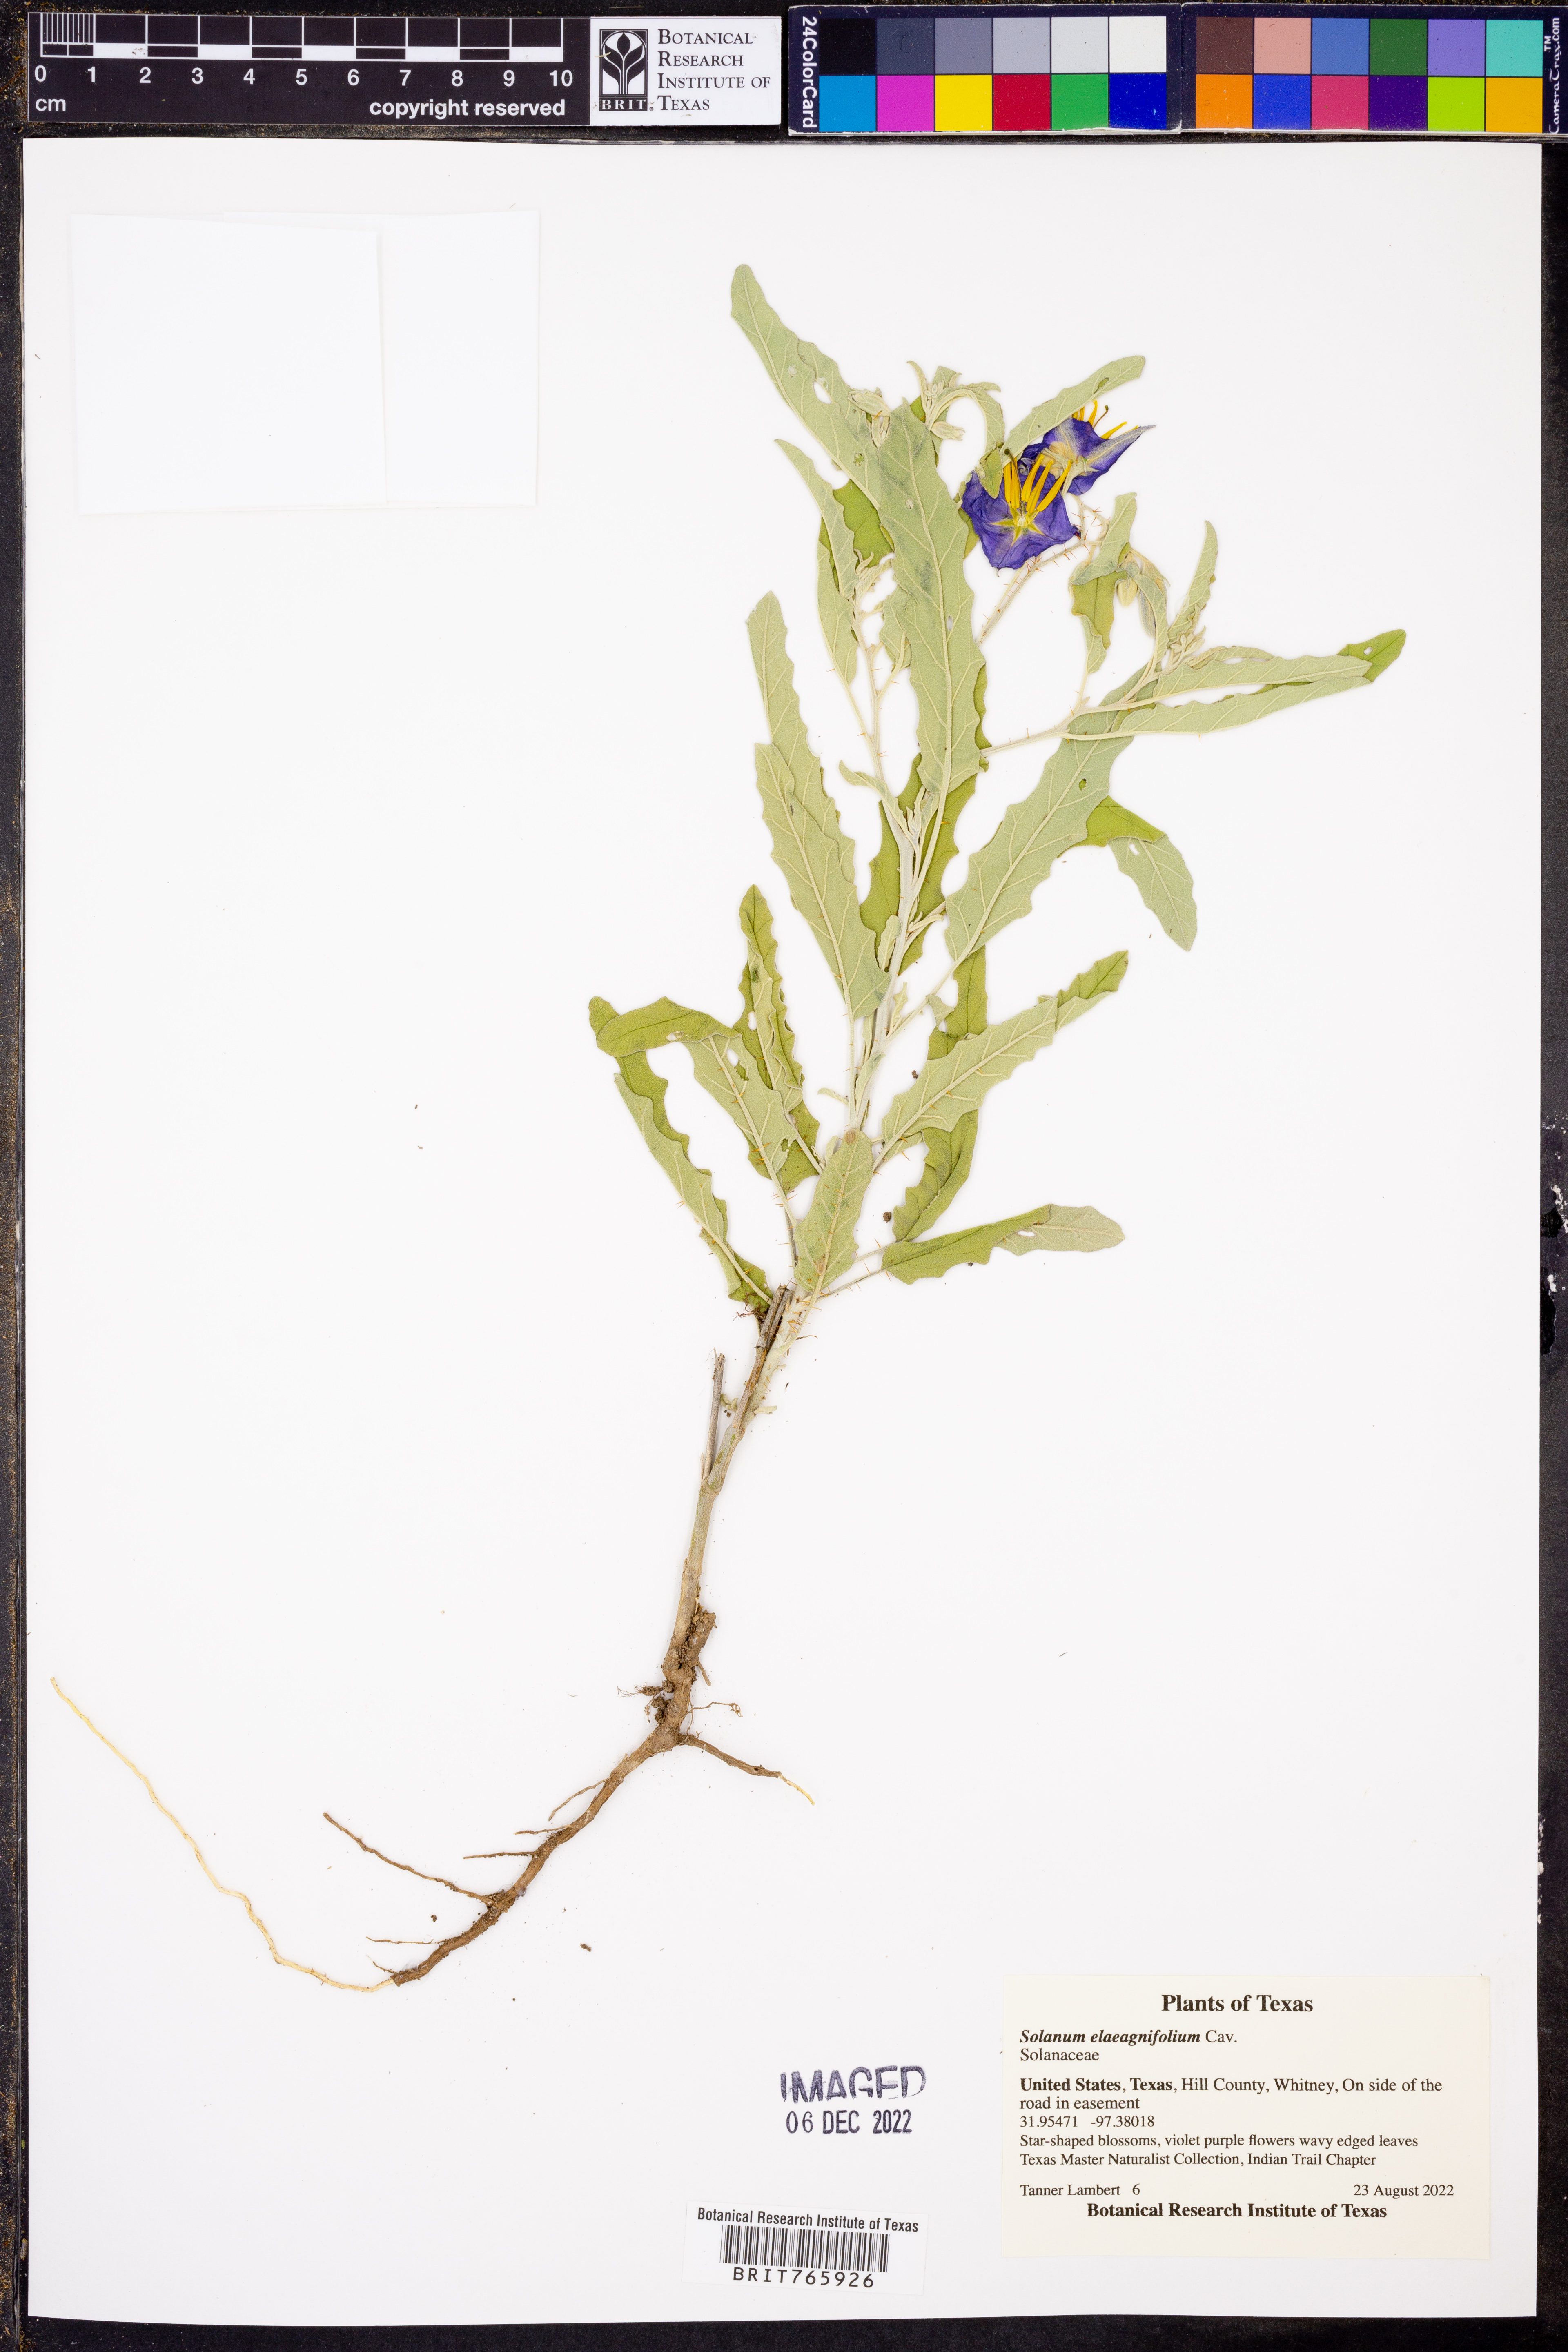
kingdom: Plantae
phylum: Tracheophyta
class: Magnoliopsida
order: Solanales
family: Solanaceae
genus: Solanum
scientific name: Solanum elaeagnifolium
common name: Silverleaf nightshade
